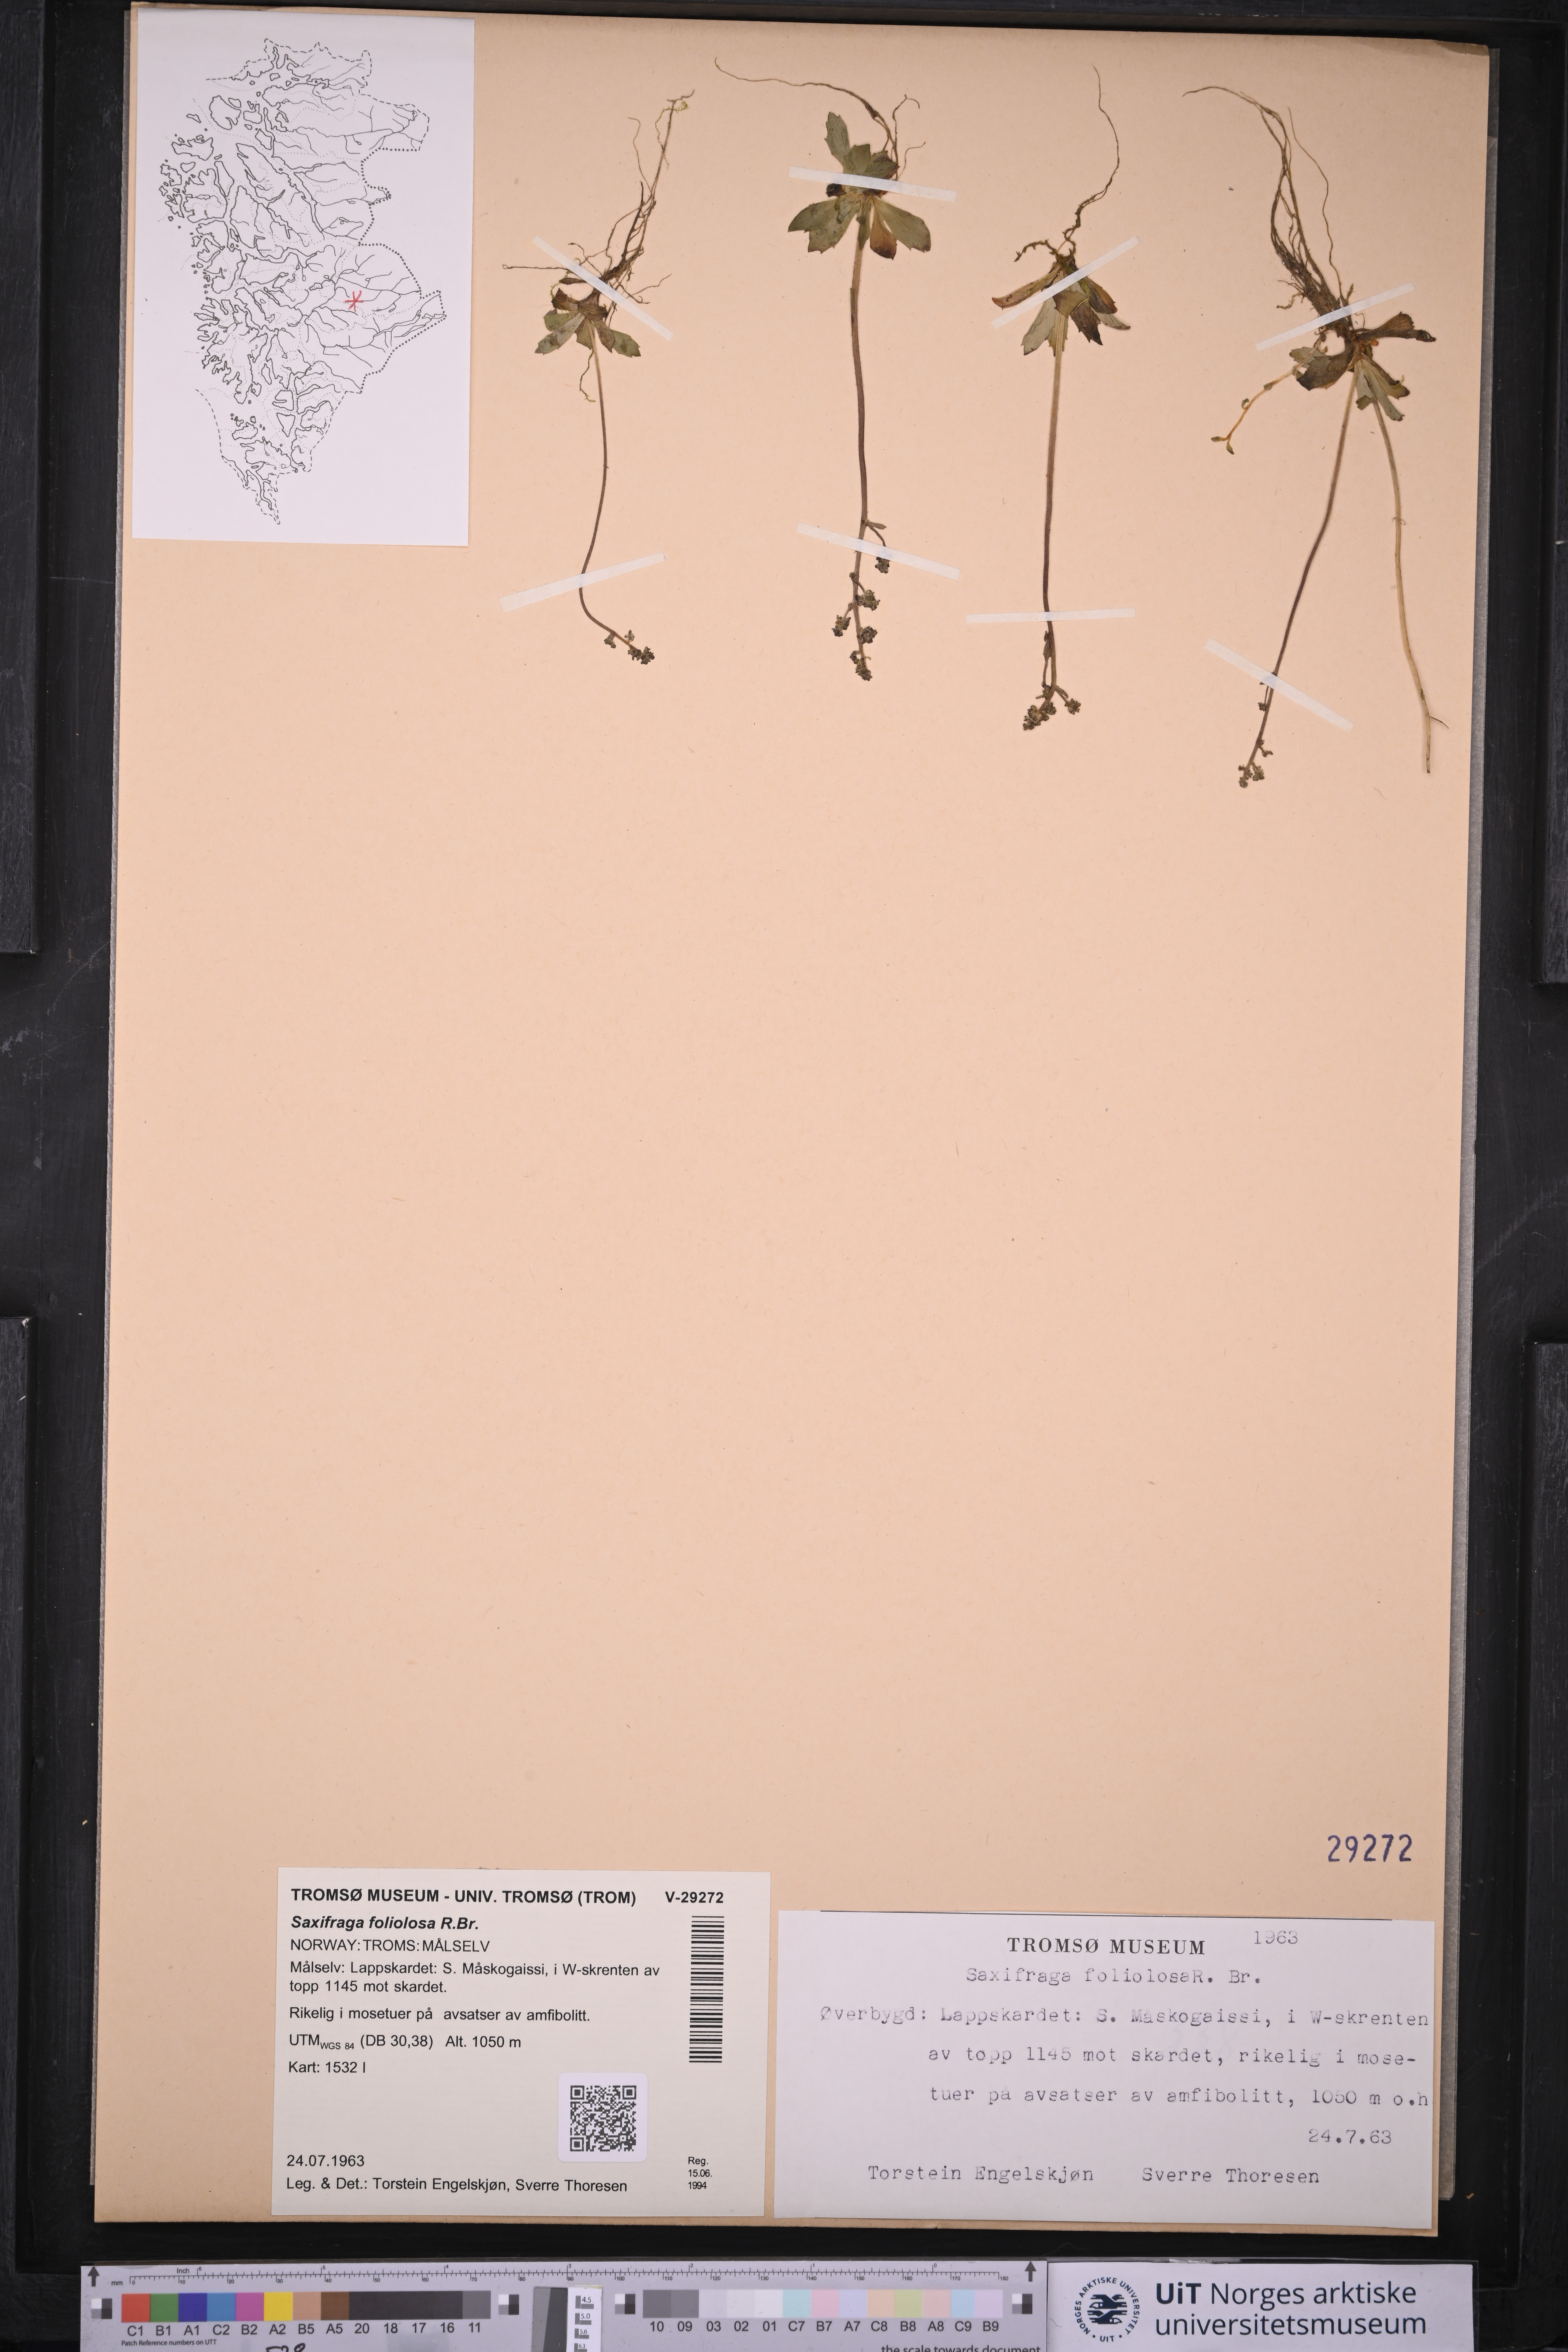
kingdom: Plantae
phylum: Tracheophyta
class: Magnoliopsida
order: Saxifragales
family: Saxifragaceae
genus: Micranthes
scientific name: Micranthes foliolosa
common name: Leafystem saxifrage
